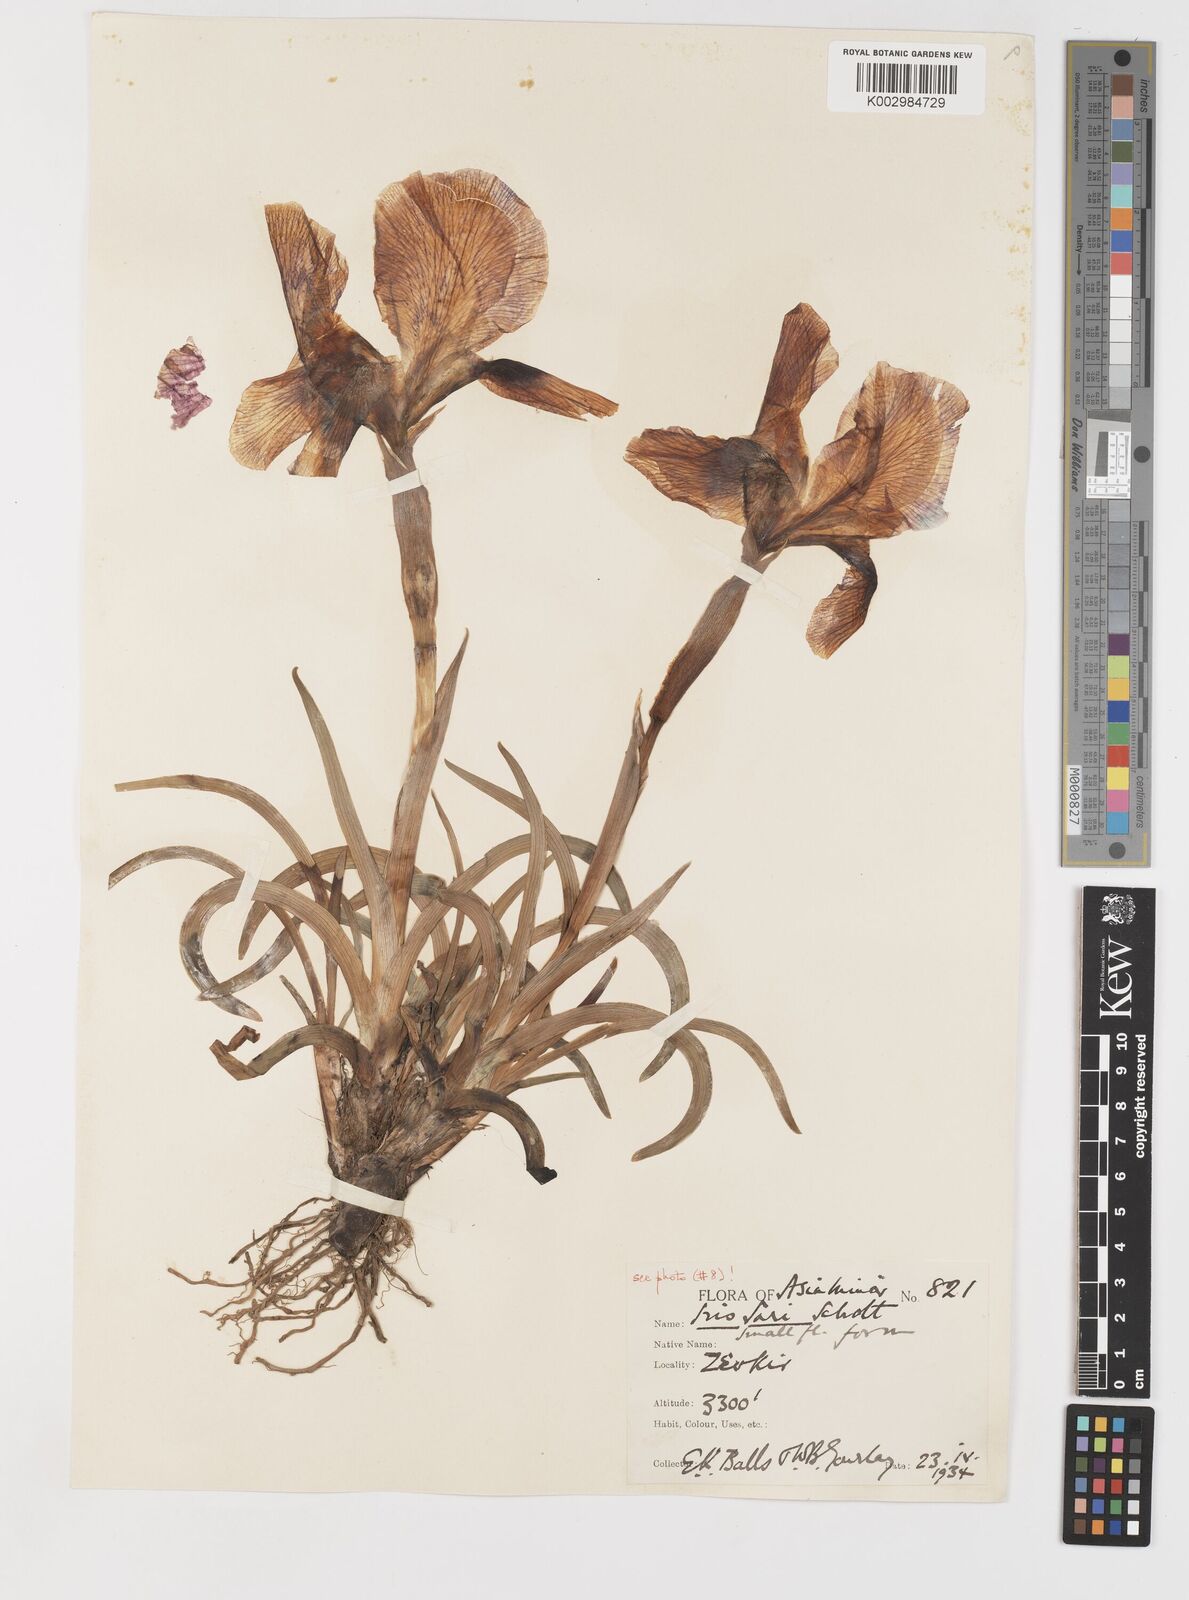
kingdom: Plantae
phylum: Tracheophyta
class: Liliopsida
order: Asparagales
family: Iridaceae
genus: Iris
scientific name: Iris sari
